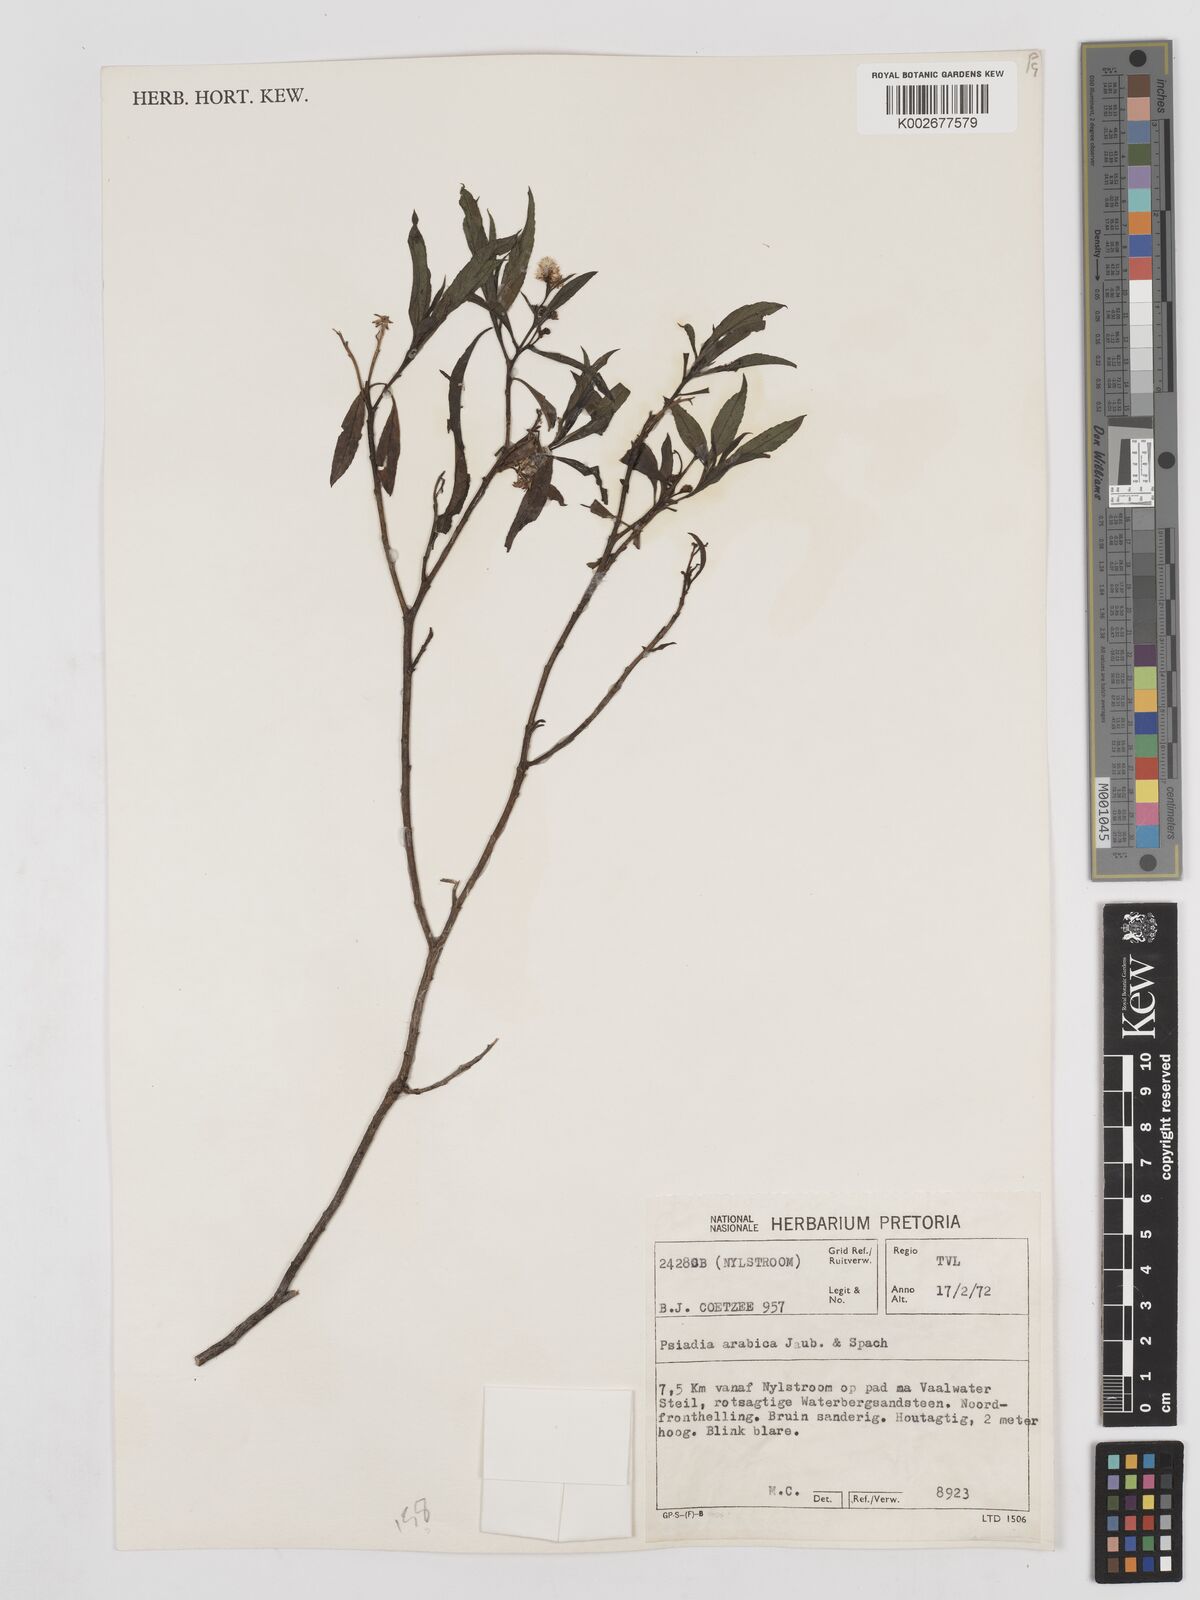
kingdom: Plantae
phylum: Tracheophyta
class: Magnoliopsida
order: Asterales
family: Asteraceae
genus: Psiadia
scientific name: Psiadia punctulata
